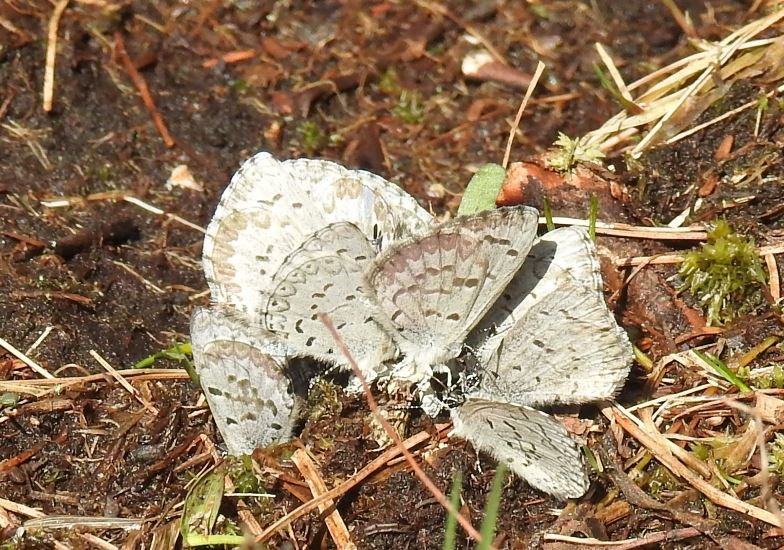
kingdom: Animalia
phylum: Arthropoda
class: Insecta
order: Lepidoptera
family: Lycaenidae
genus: Celastrina
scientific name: Celastrina lucia
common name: Northern Spring Azure
